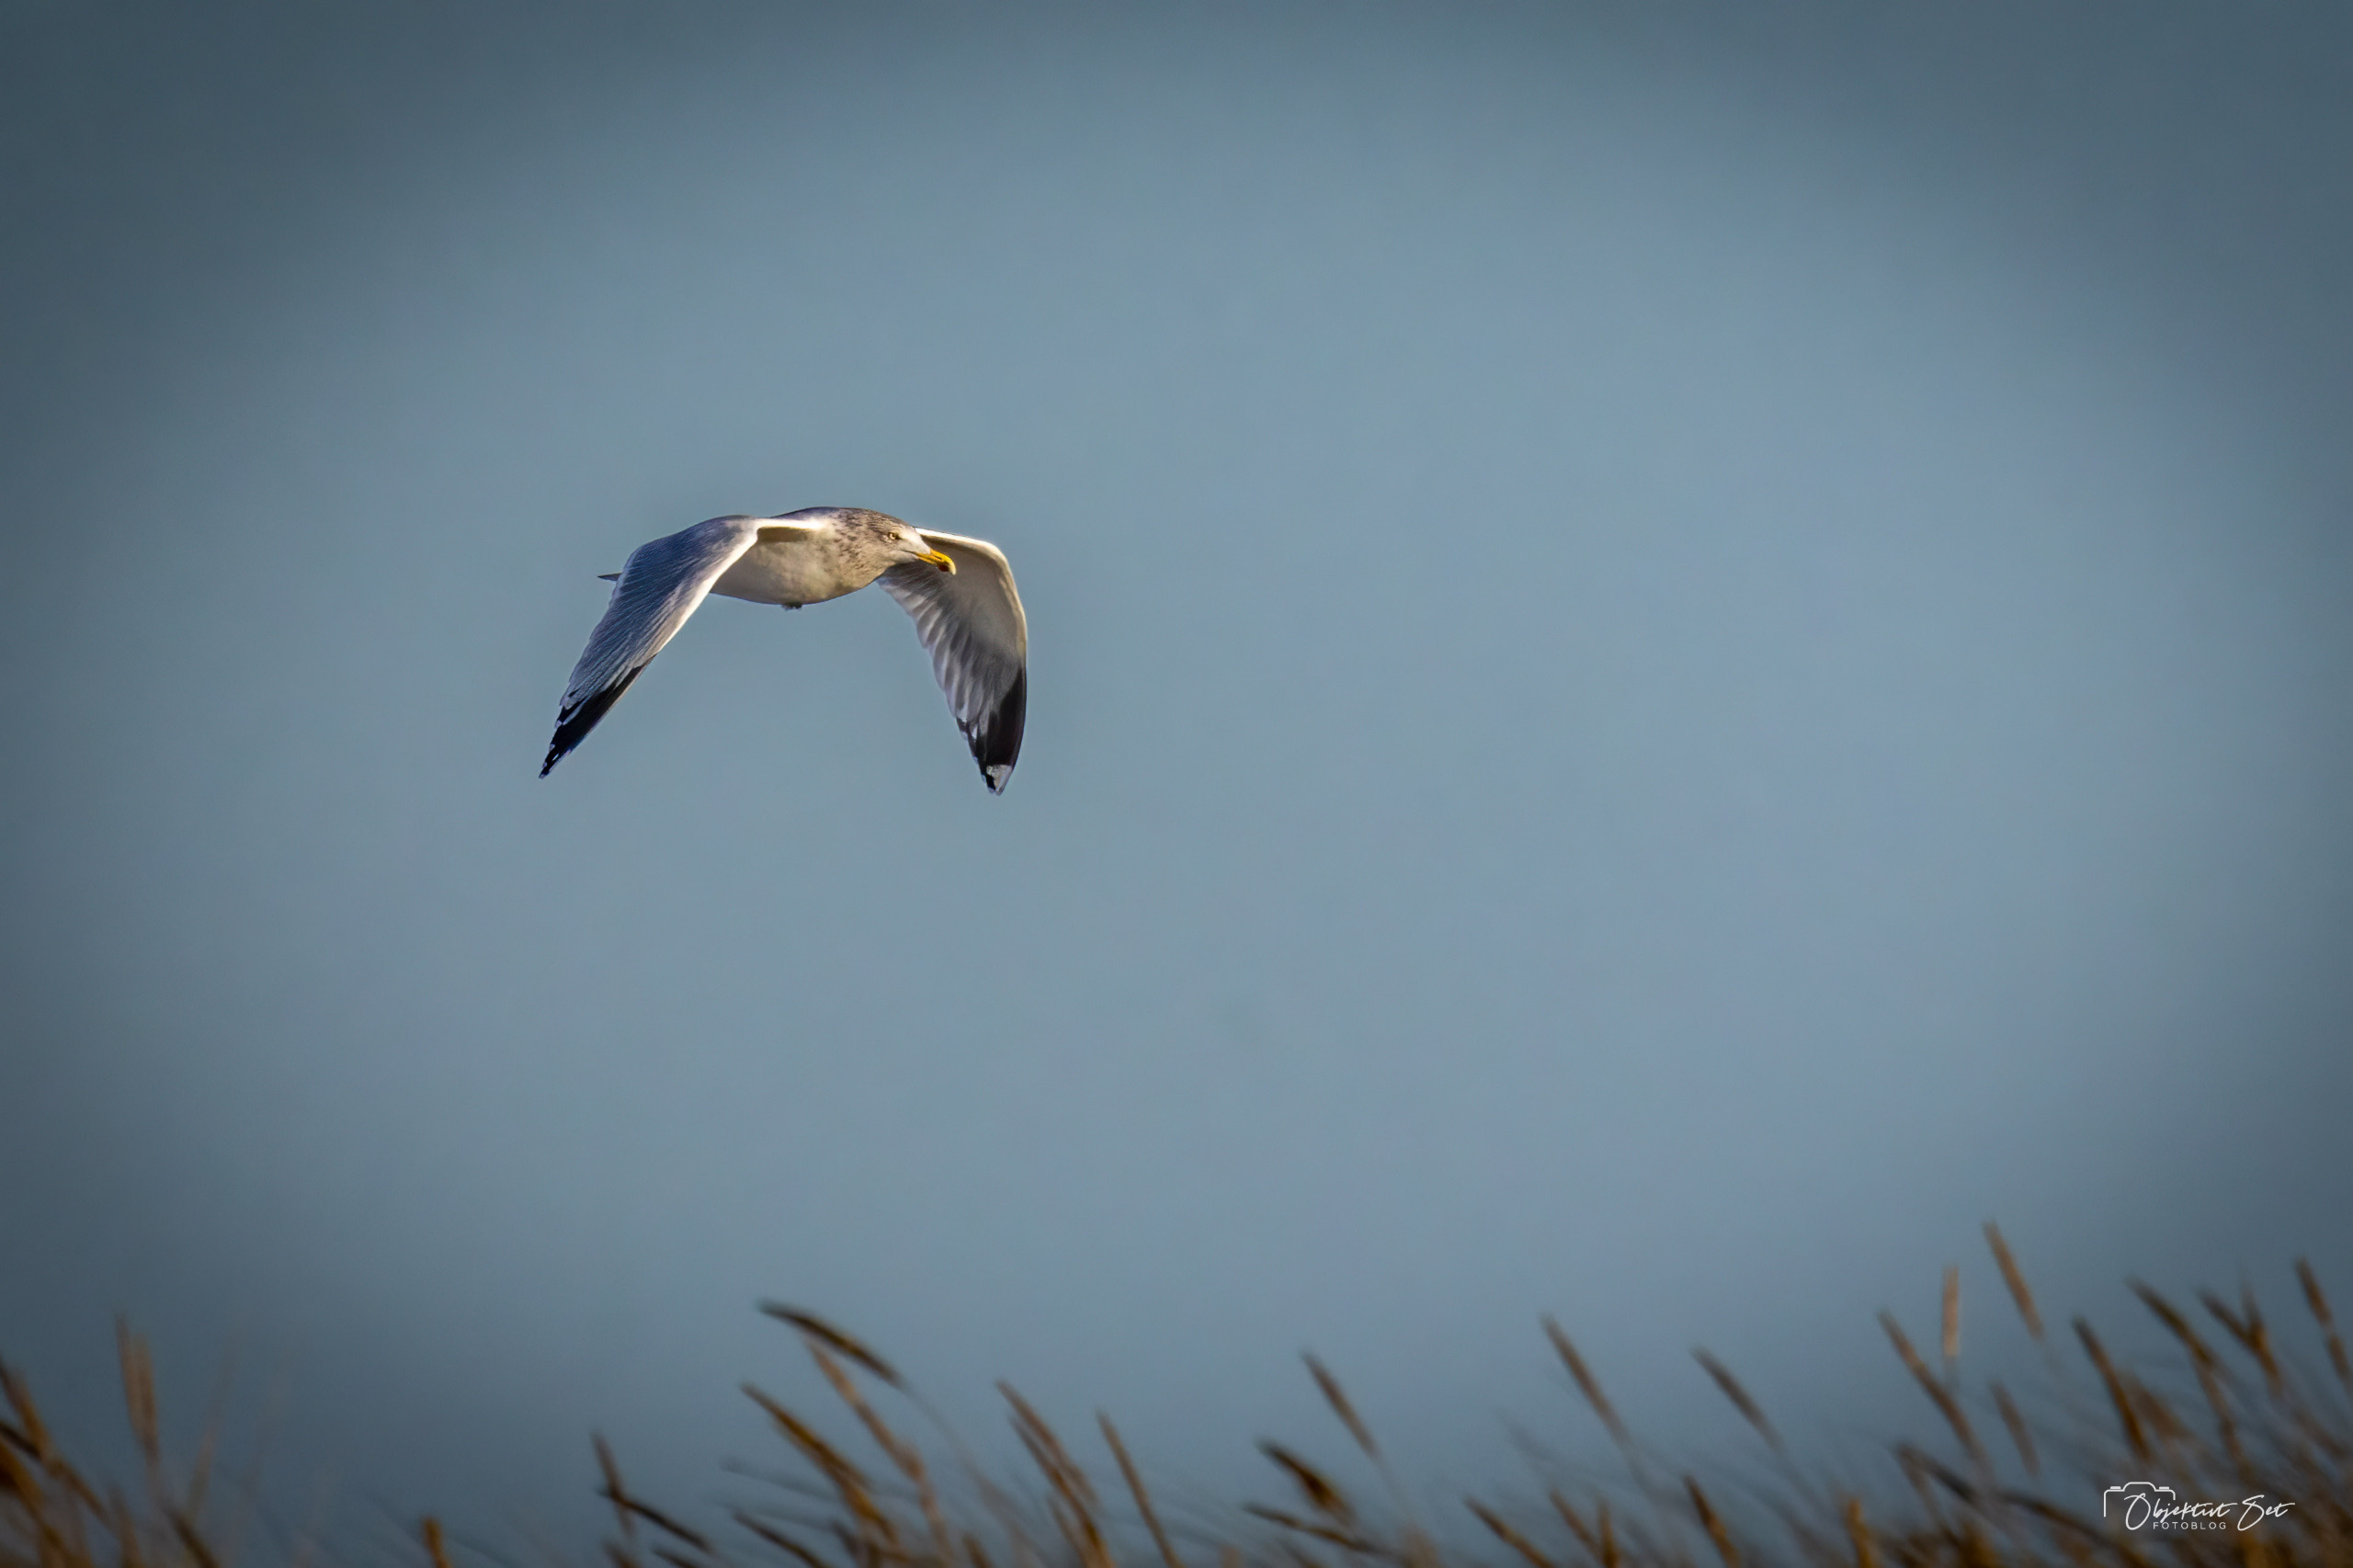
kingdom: Animalia
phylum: Chordata
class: Aves
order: Charadriiformes
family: Laridae
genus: Larus
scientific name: Larus argentatus
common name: Sølvmåge
